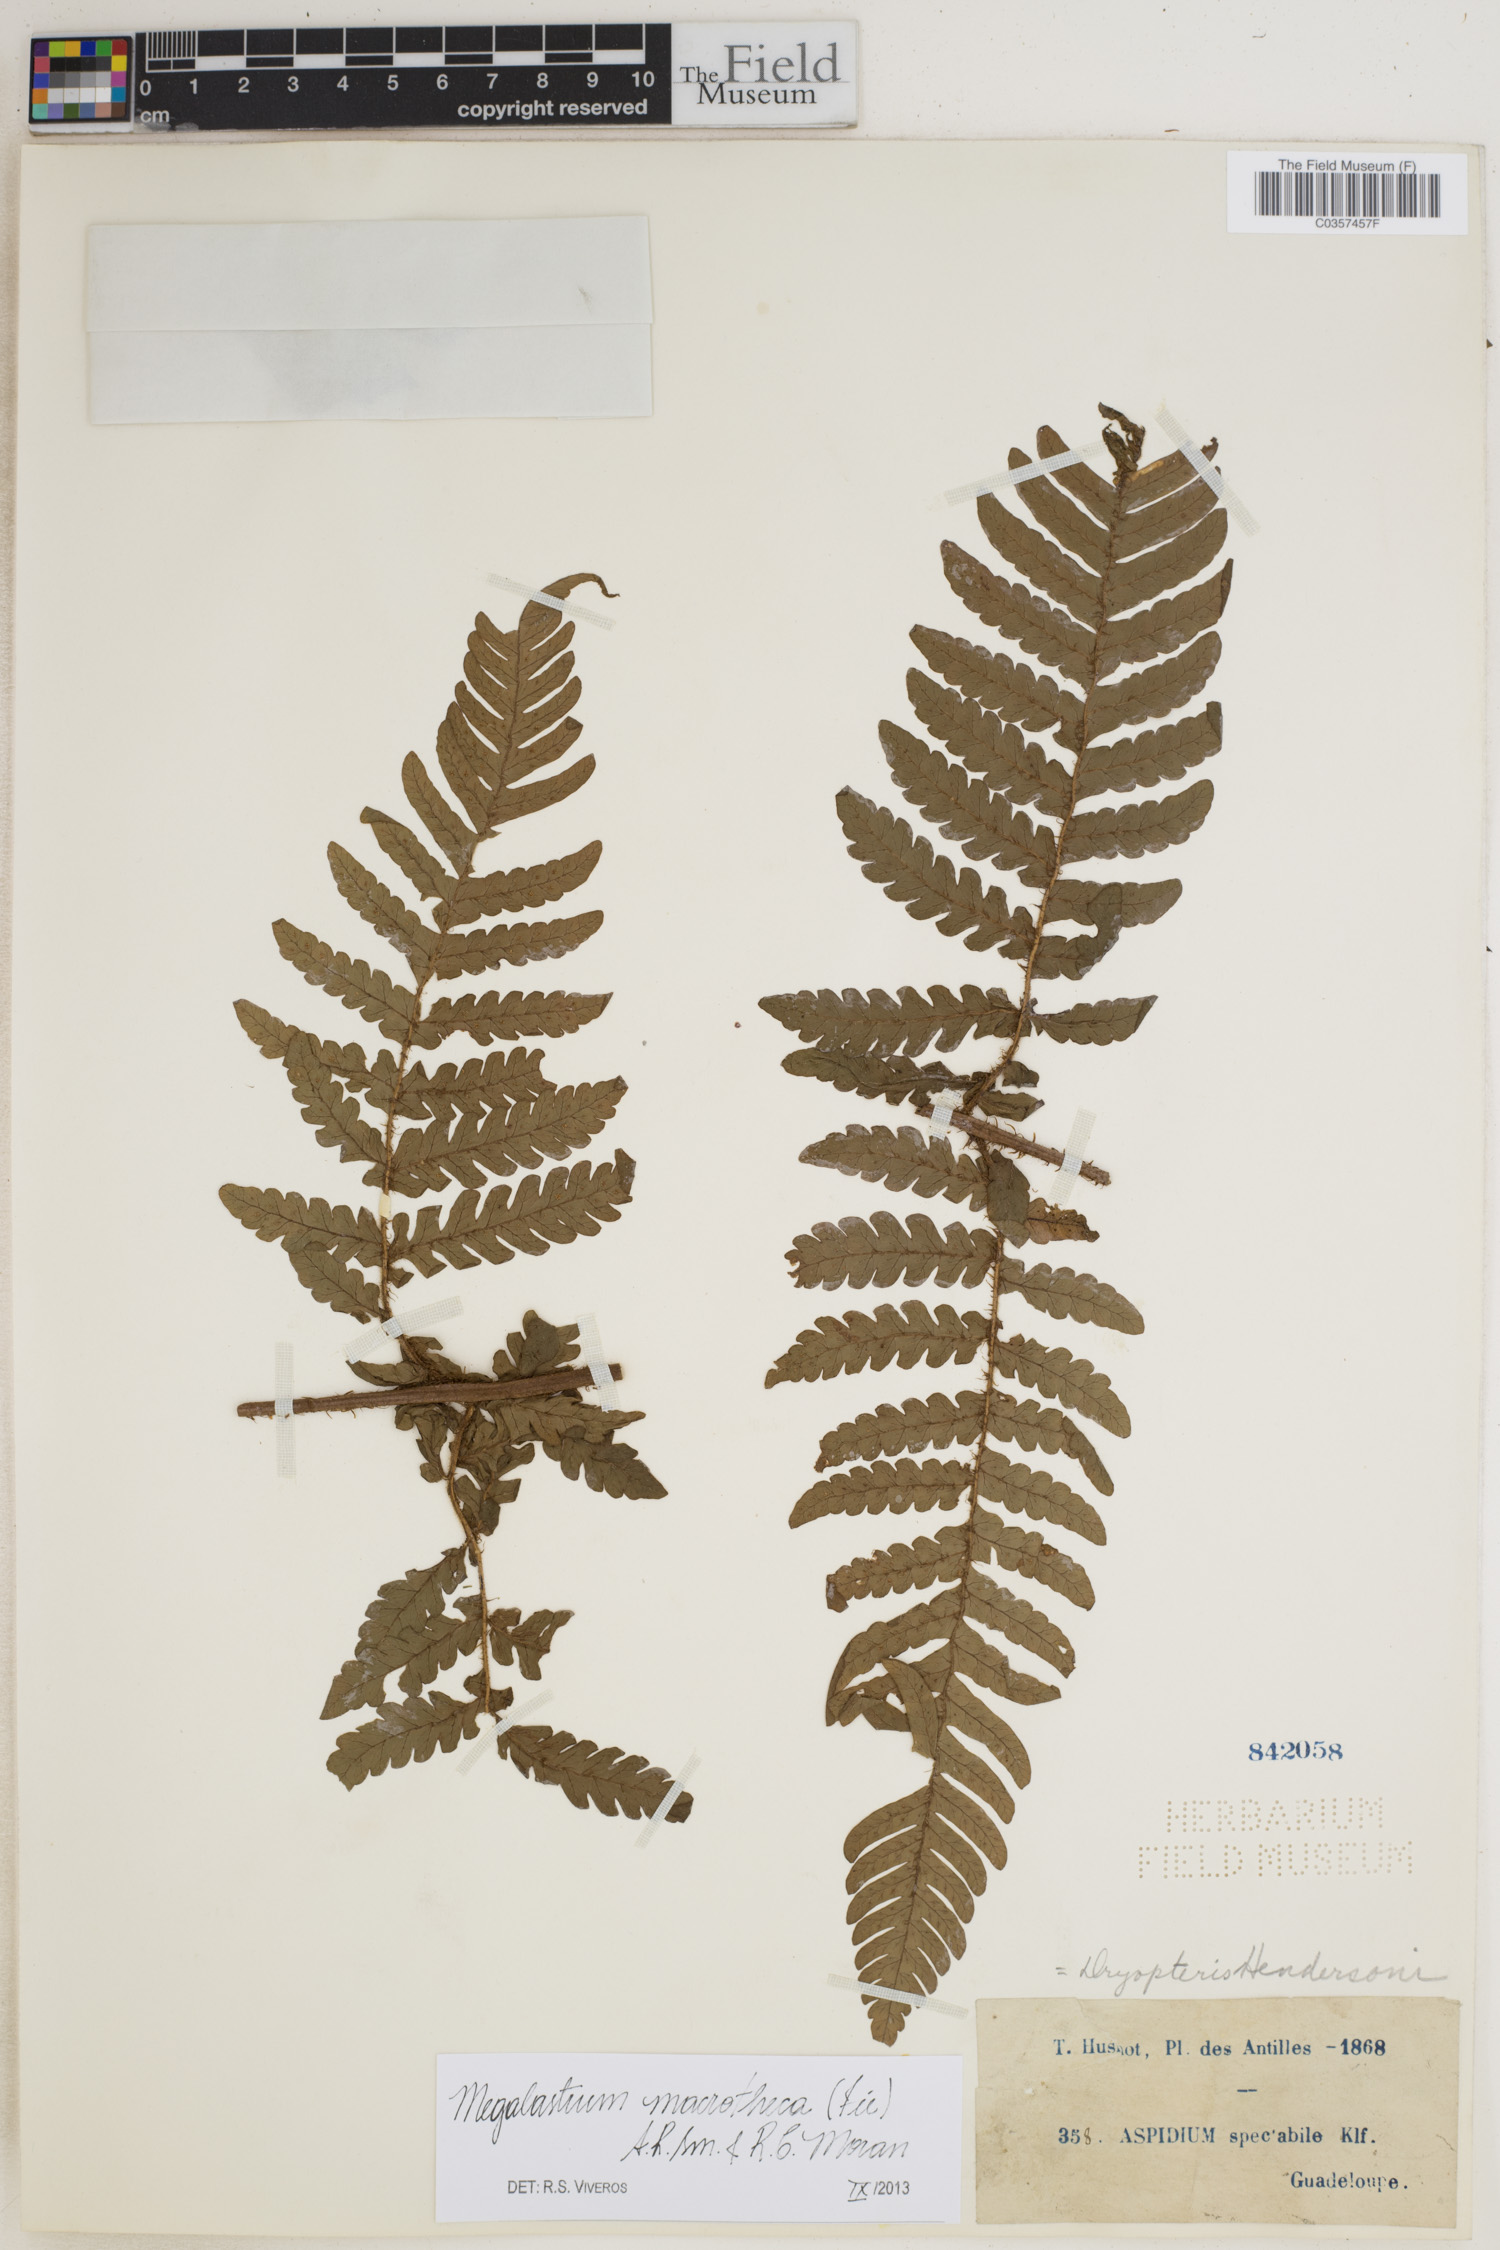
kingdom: Plantae
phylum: Tracheophyta
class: Polypodiopsida
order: Polypodiales
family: Dryopteridaceae
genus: Megalastrum
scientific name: Megalastrum macrothecum
